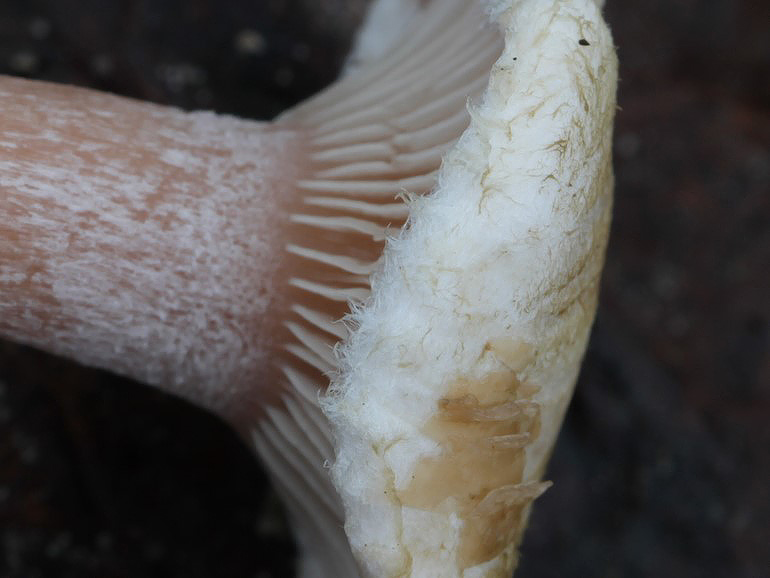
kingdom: Fungi
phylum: Basidiomycota
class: Agaricomycetes
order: Agaricales
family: Tricholomataceae
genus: Ripartites
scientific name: Ripartites tricholoma
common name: almindelig skæghat
